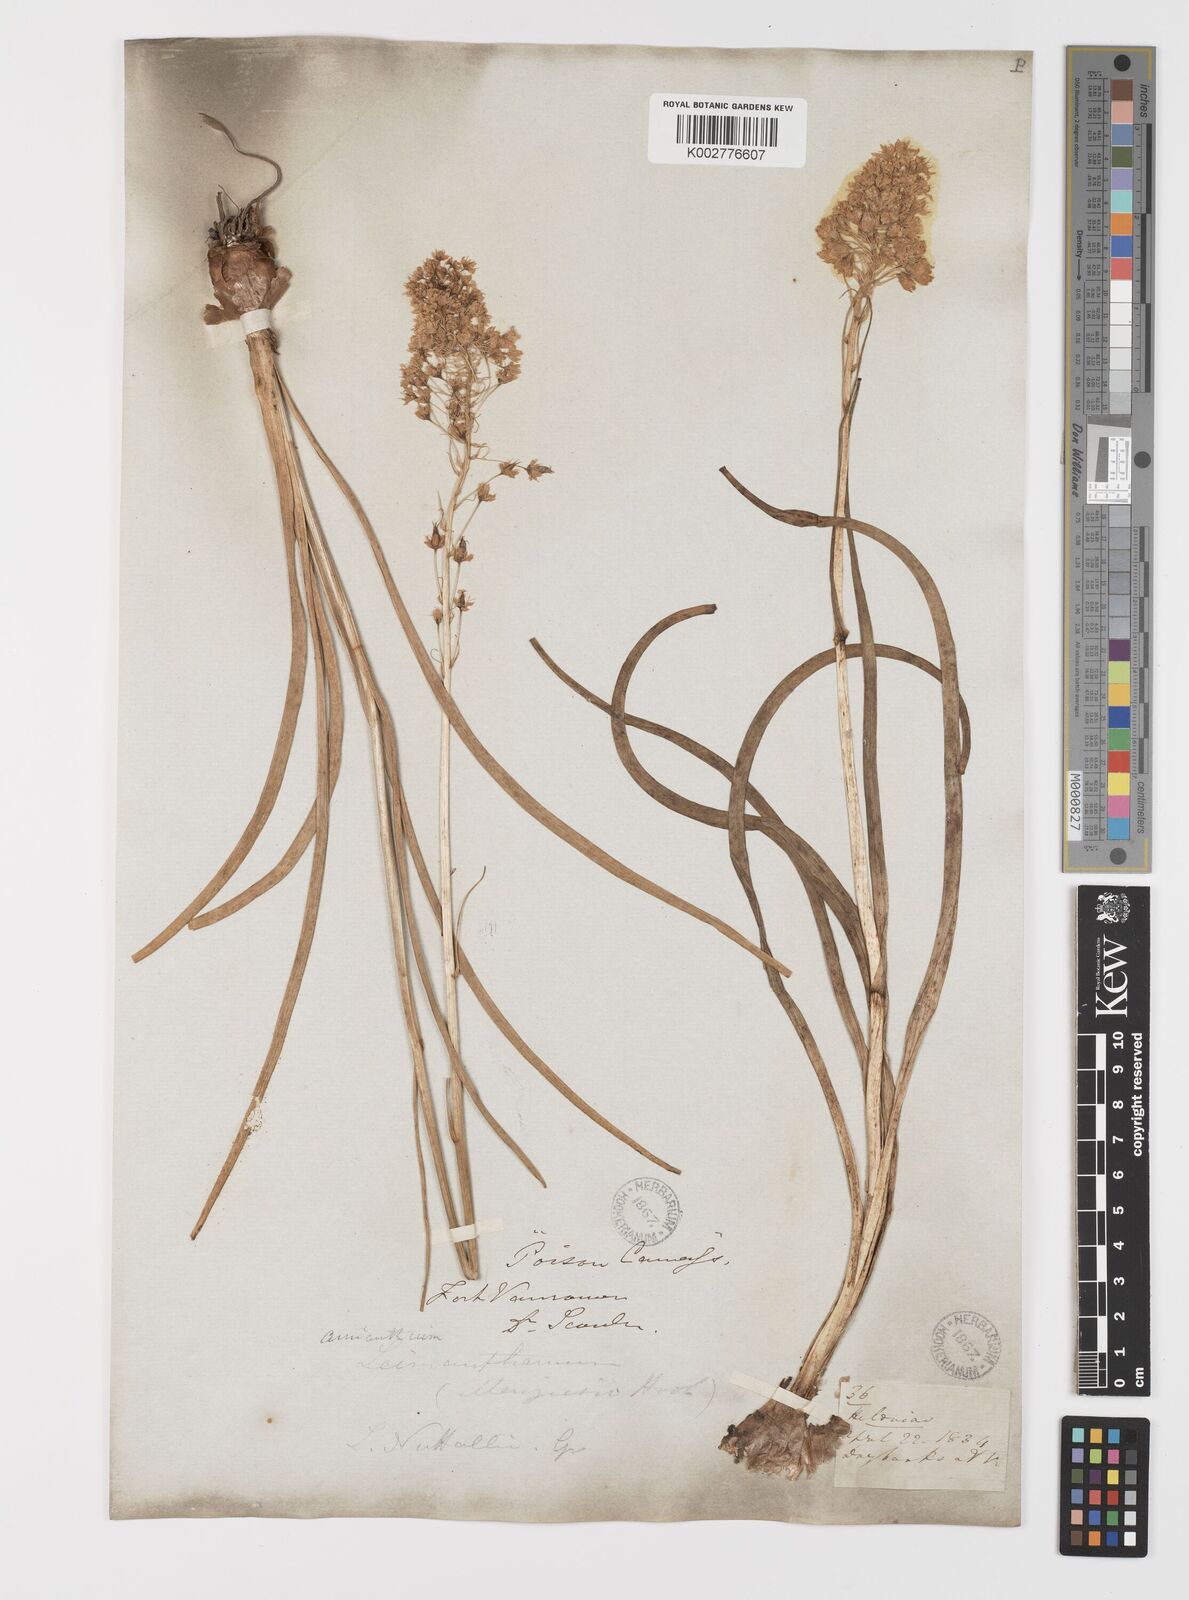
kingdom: Plantae
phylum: Tracheophyta
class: Liliopsida
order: Liliales
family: Melanthiaceae
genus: Toxicoscordion
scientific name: Toxicoscordion venenosum
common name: Meadow death camas
